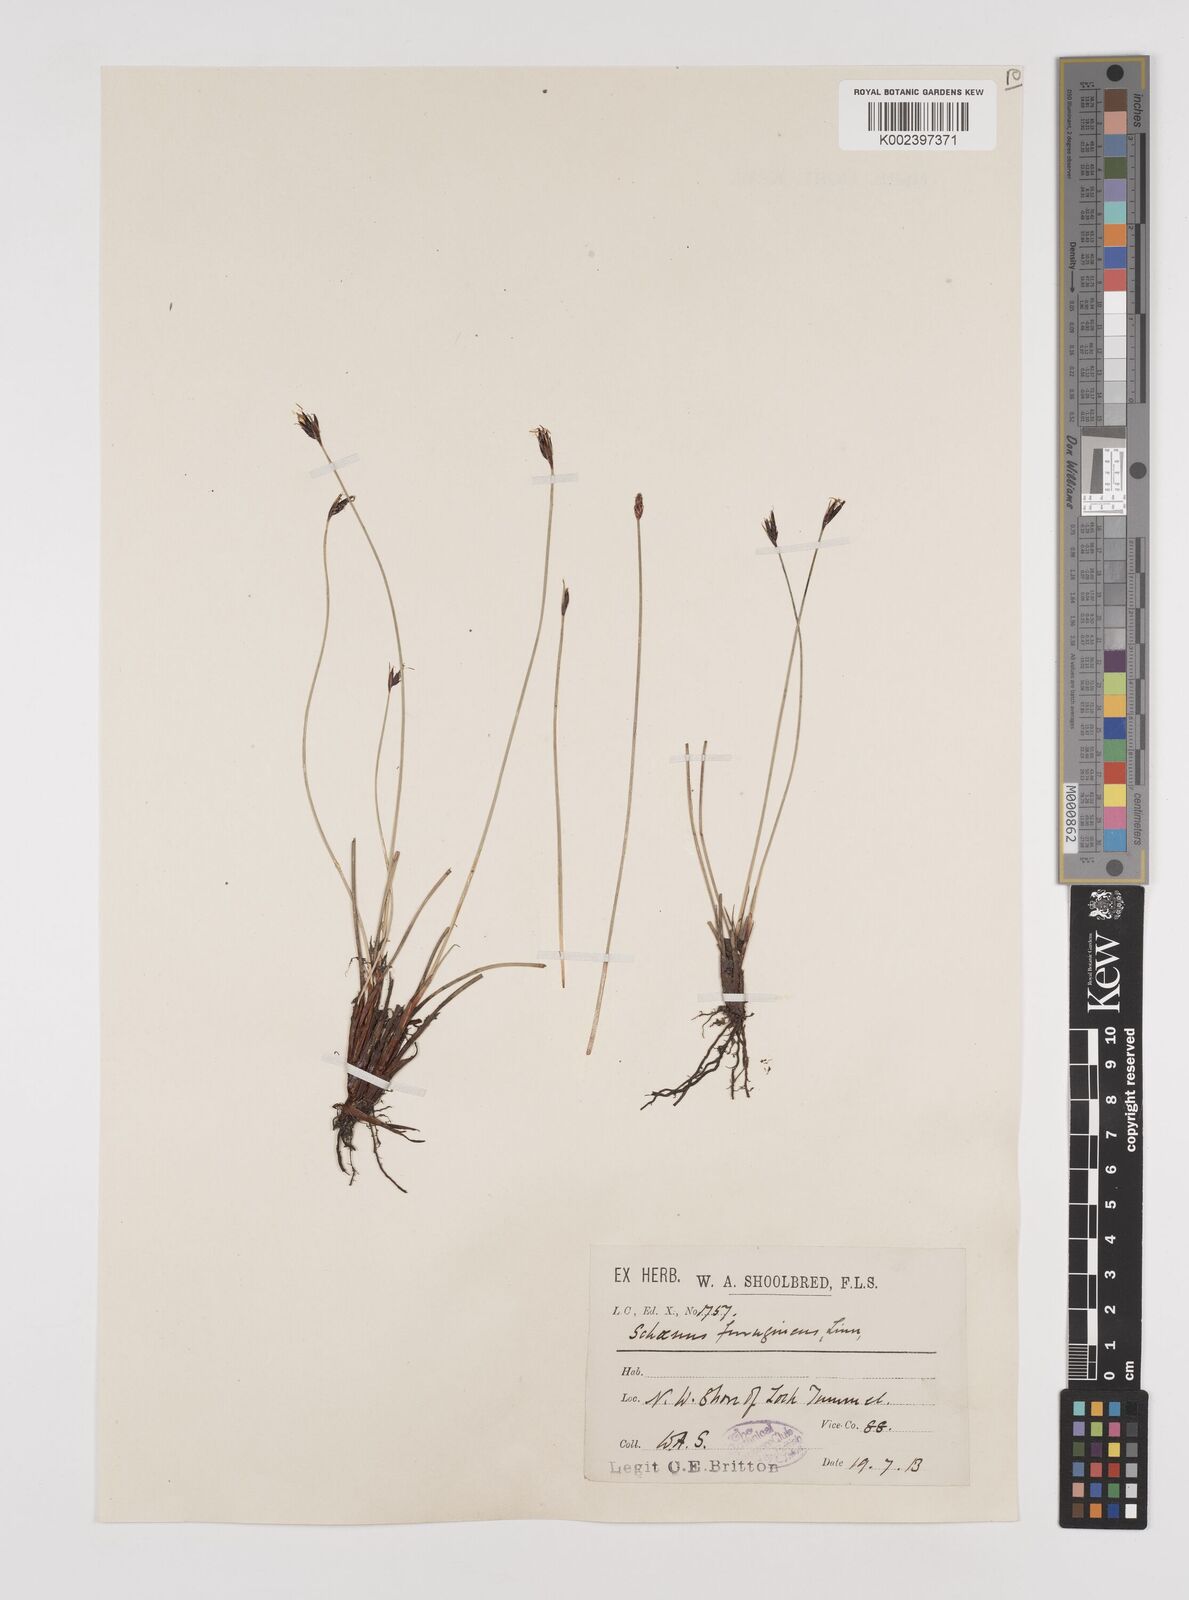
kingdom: Plantae
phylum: Tracheophyta
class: Liliopsida
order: Poales
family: Cyperaceae
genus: Schoenus
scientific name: Schoenus ferrugineus
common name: Brown bog-rush
